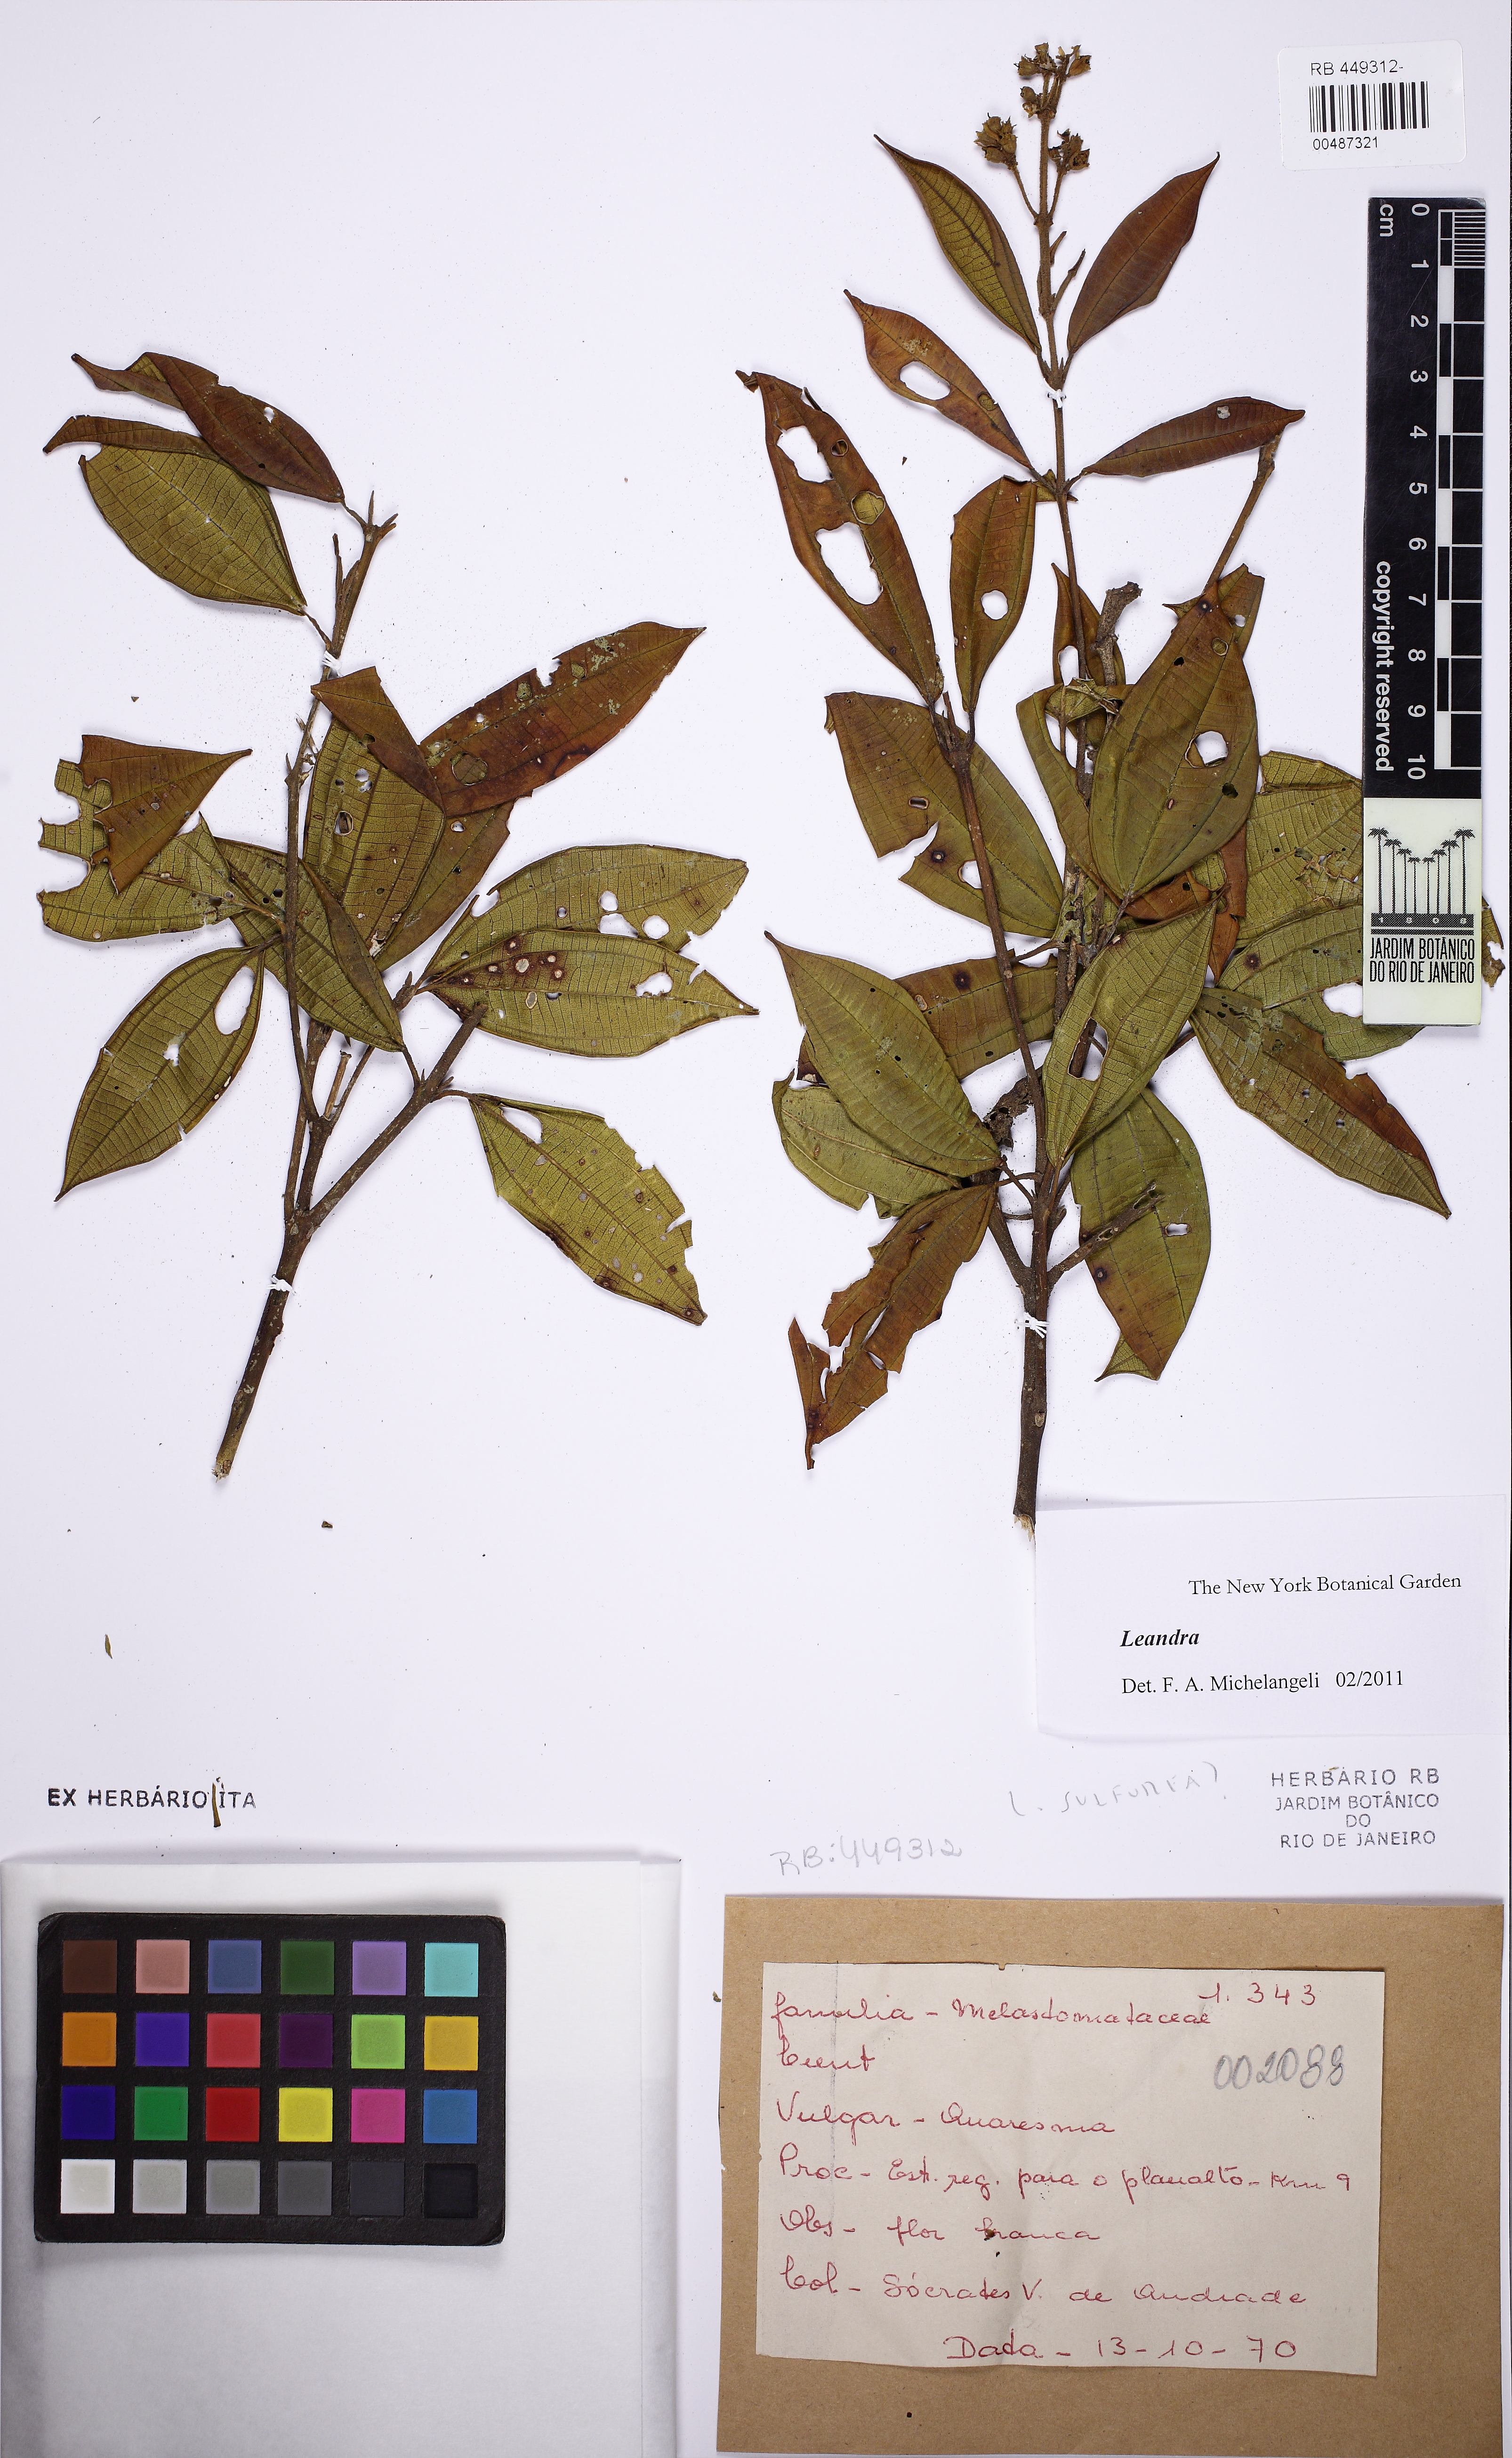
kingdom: Plantae
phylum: Tracheophyta
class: Magnoliopsida
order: Myrtales
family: Melastomataceae
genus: Miconia
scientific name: Miconia
